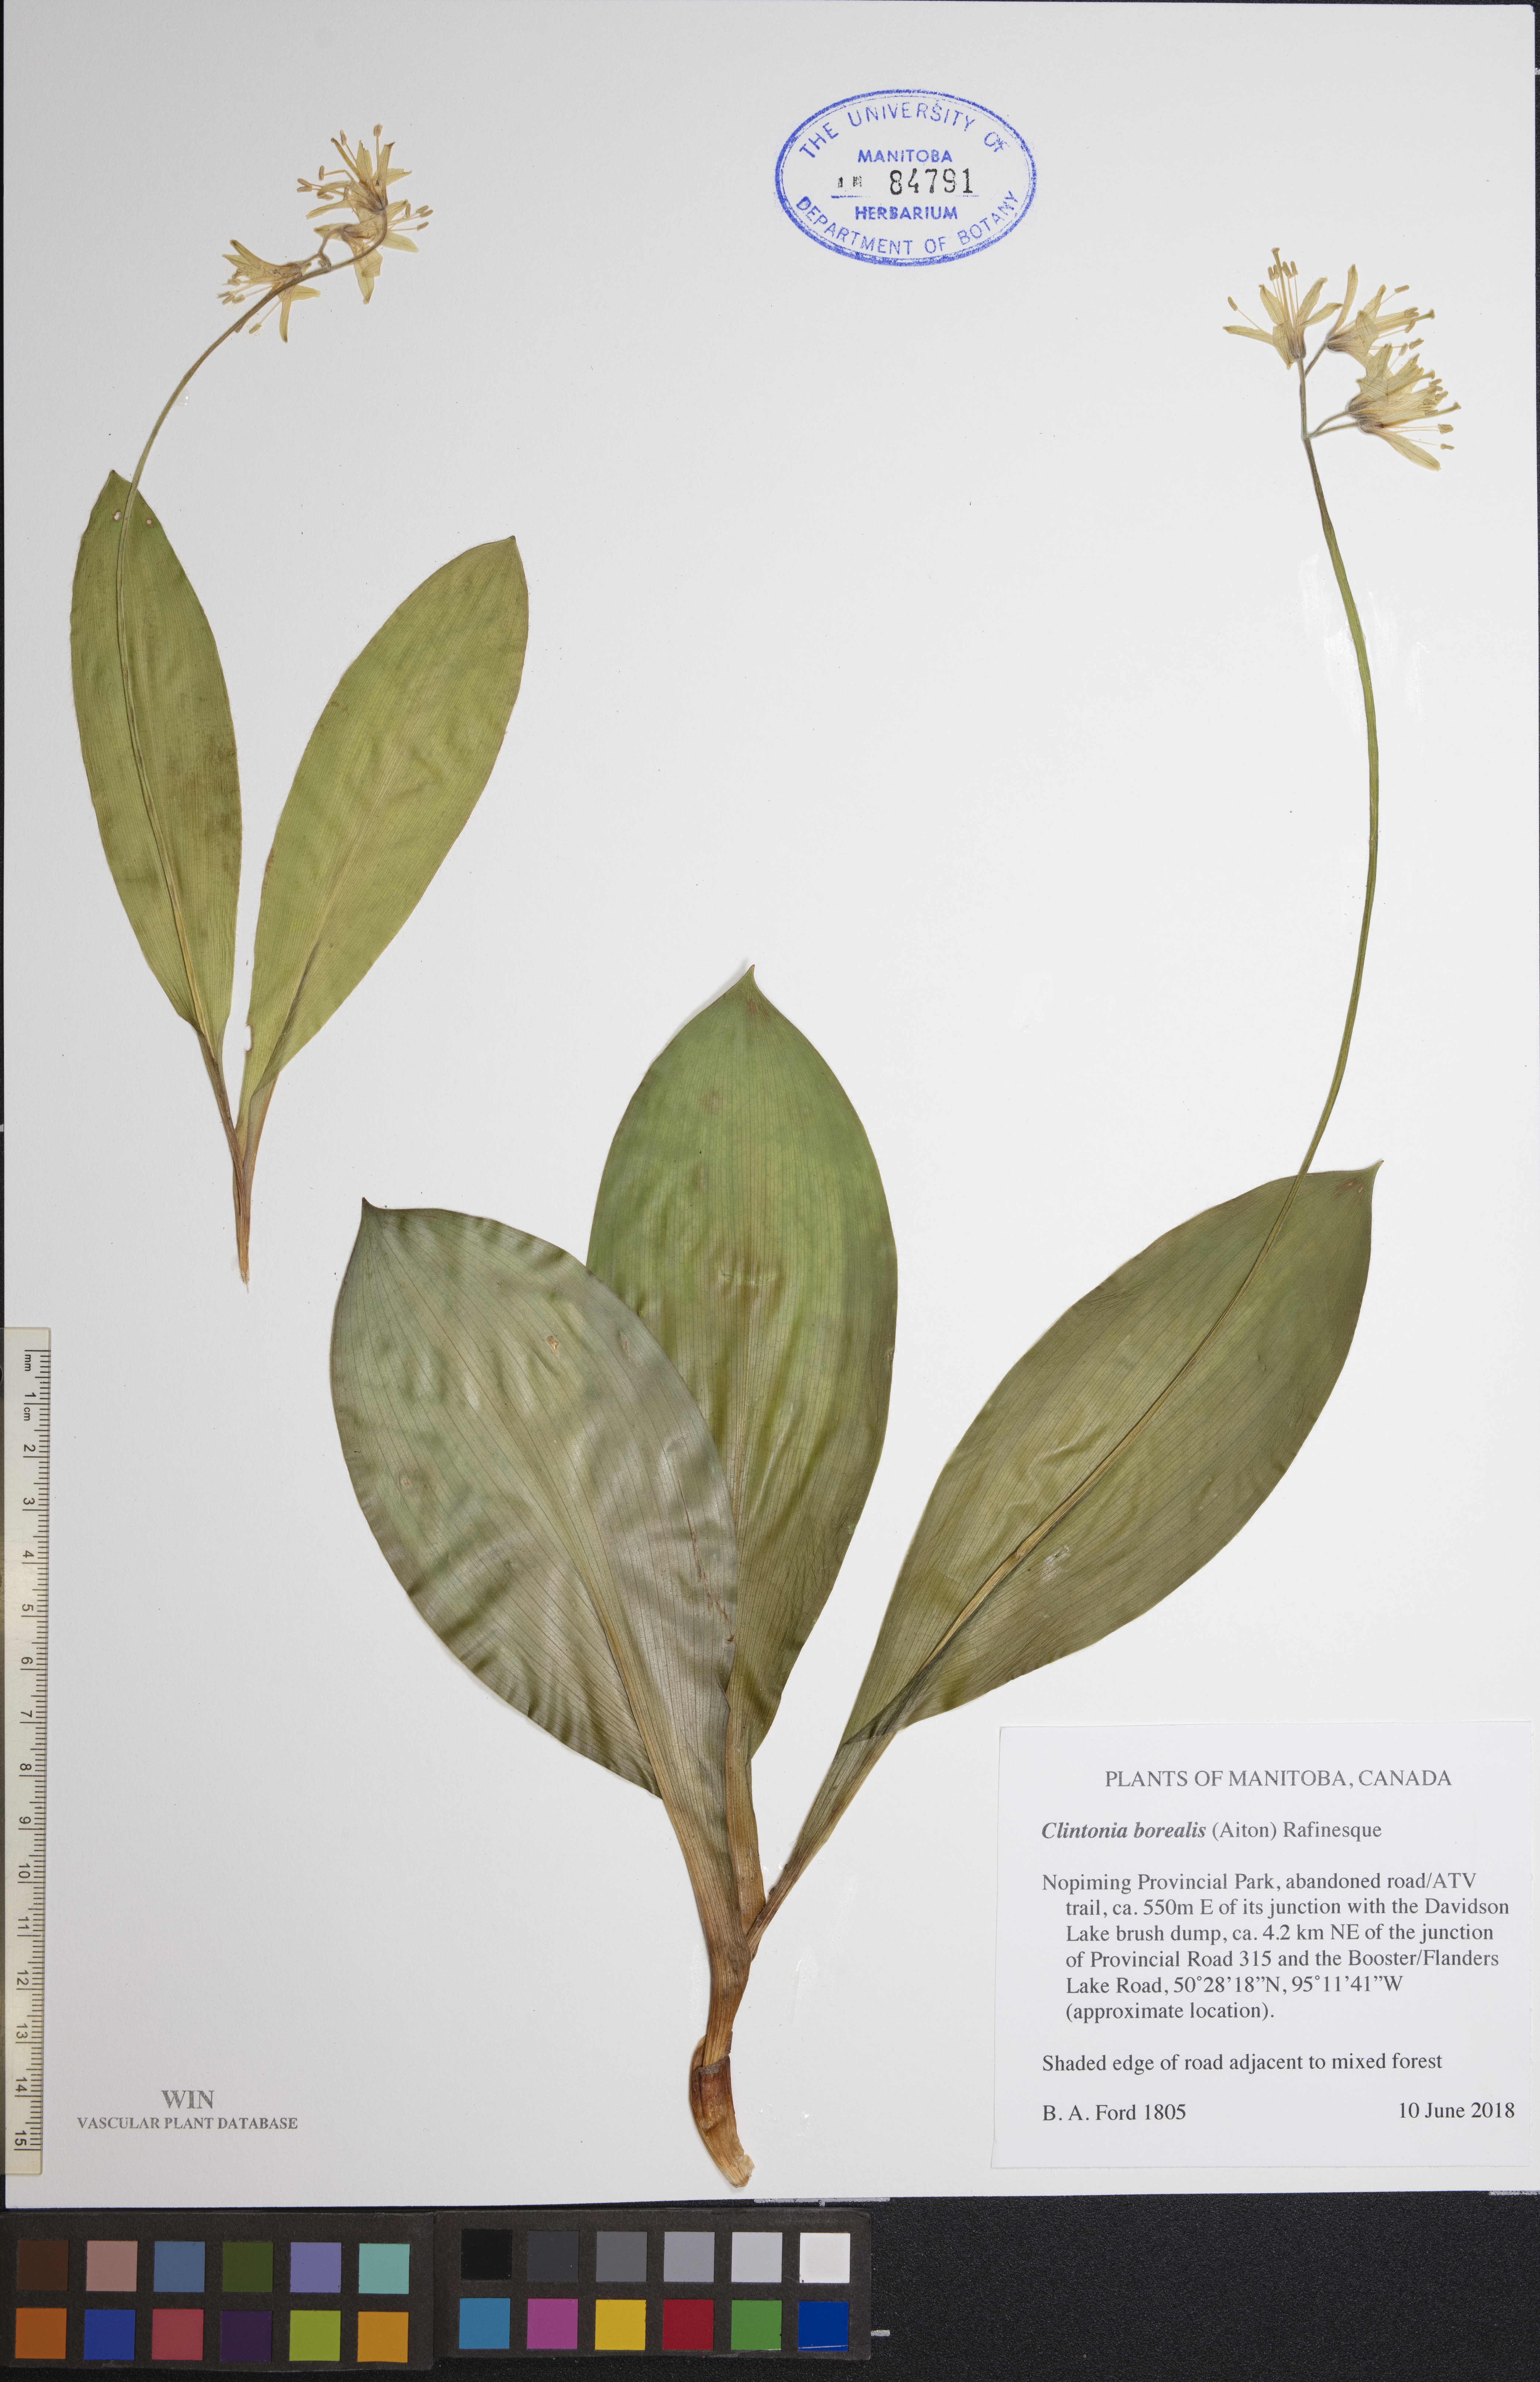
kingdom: Plantae
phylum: Tracheophyta
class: Liliopsida
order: Liliales
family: Liliaceae
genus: Clintonia
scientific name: Clintonia borealis
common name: Yellow clintonia
